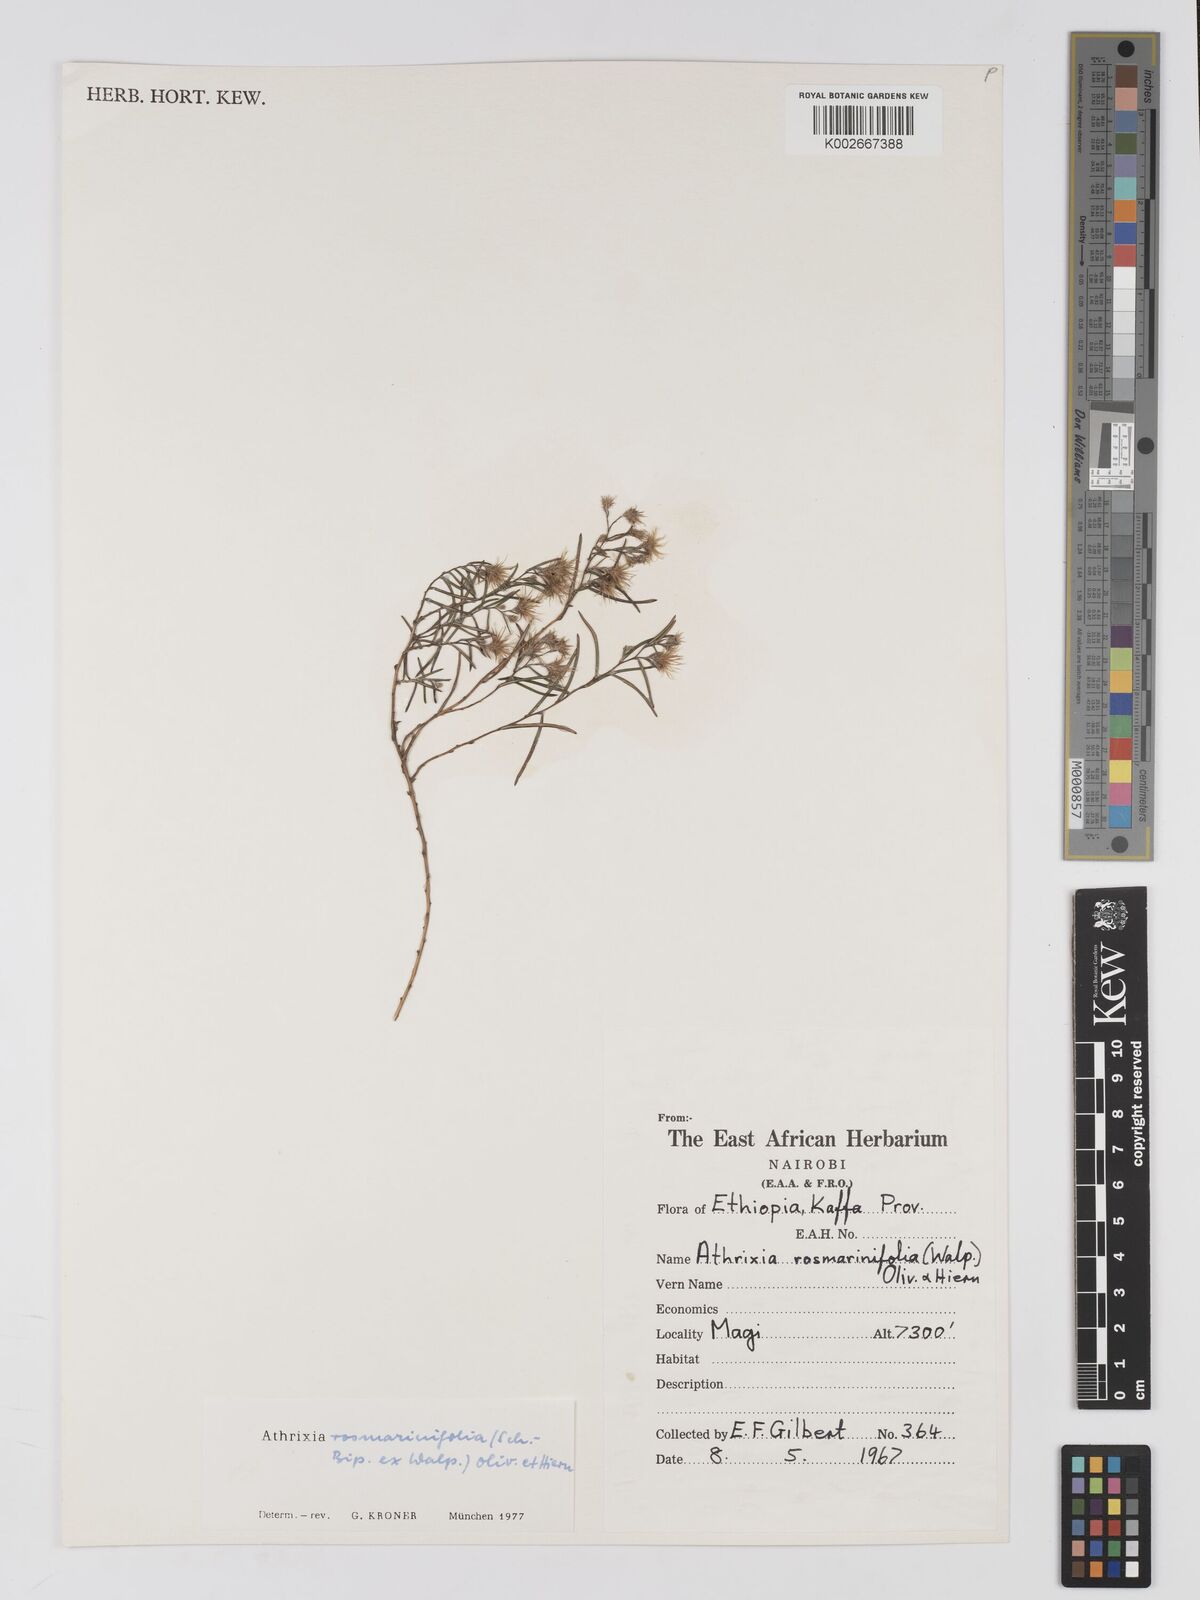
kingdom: Plantae
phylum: Tracheophyta
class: Magnoliopsida
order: Asterales
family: Asteraceae
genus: Athrixia
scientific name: Athrixia rosmarinifolia
